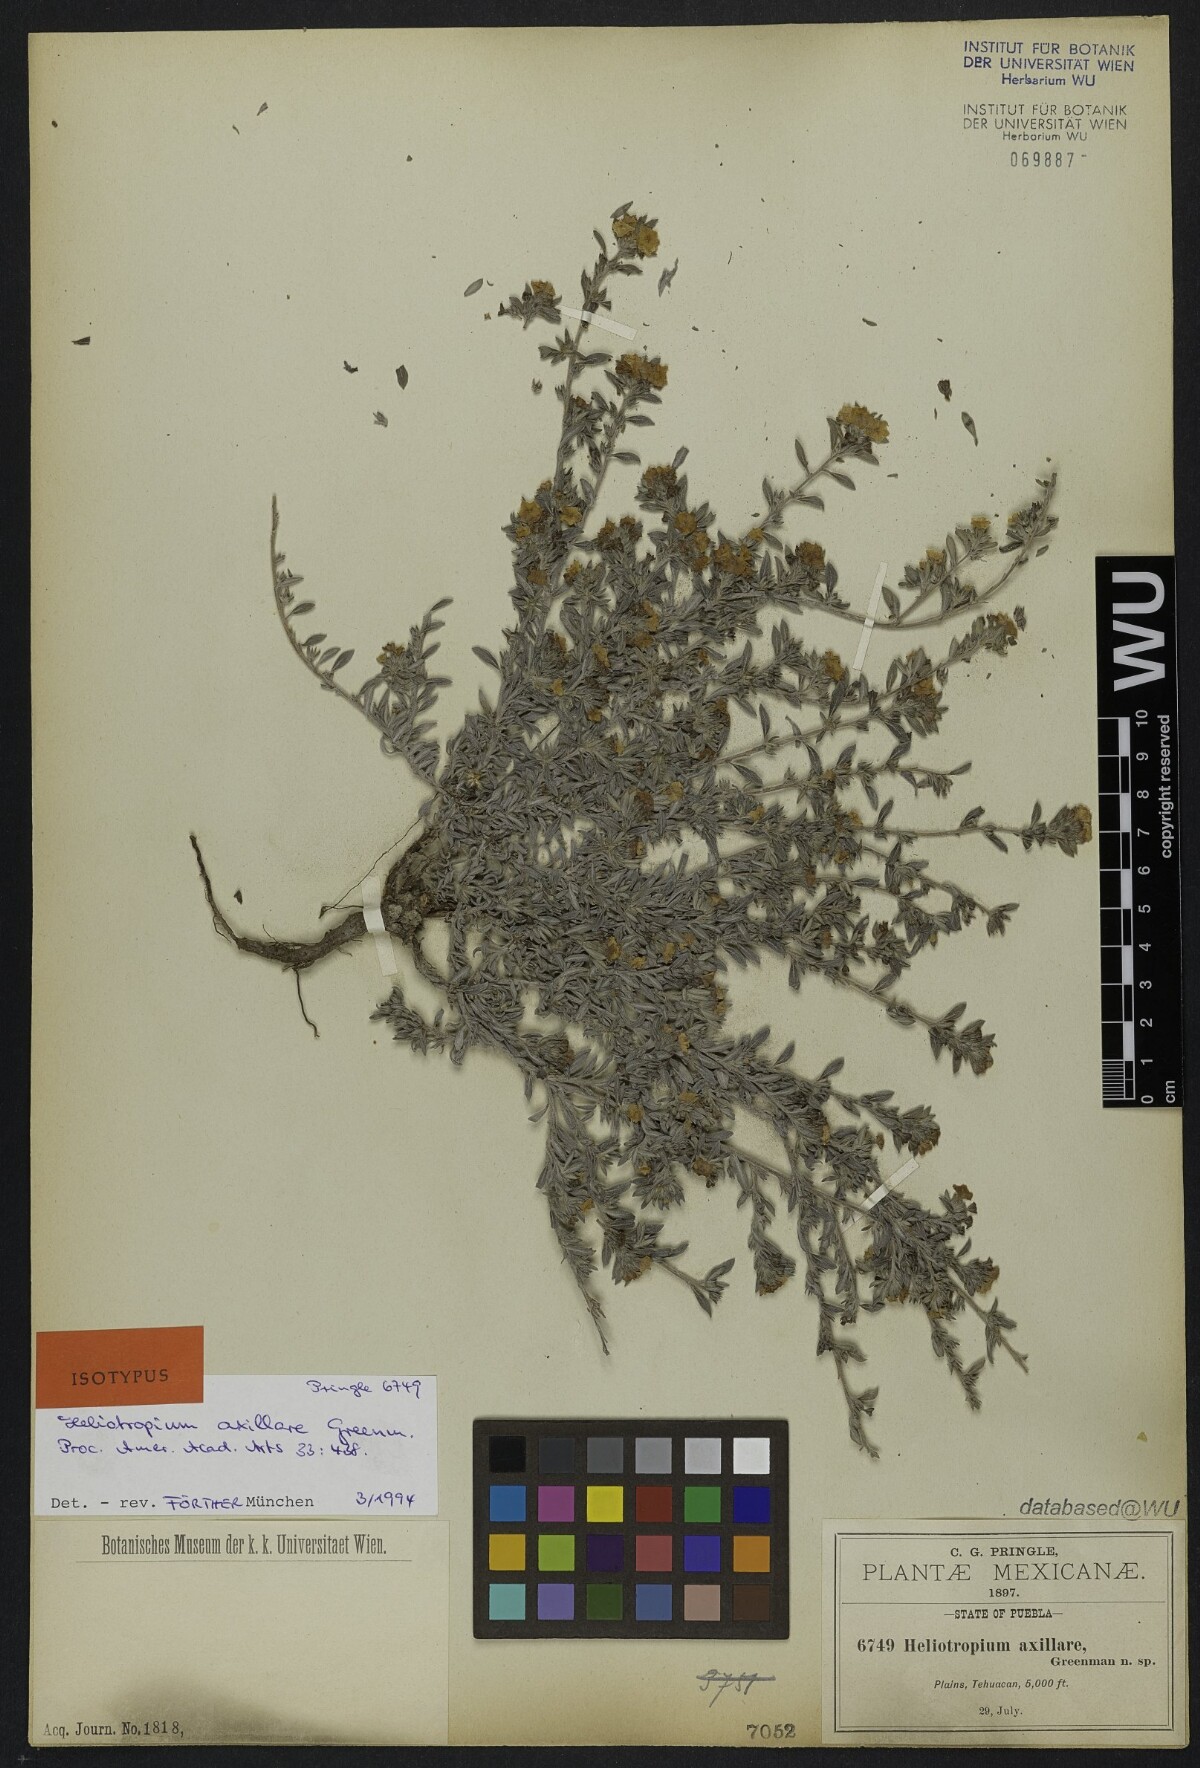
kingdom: Plantae
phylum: Tracheophyta
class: Magnoliopsida
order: Boraginales
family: Heliotropiaceae
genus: Euploca
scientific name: Euploca axillaris
